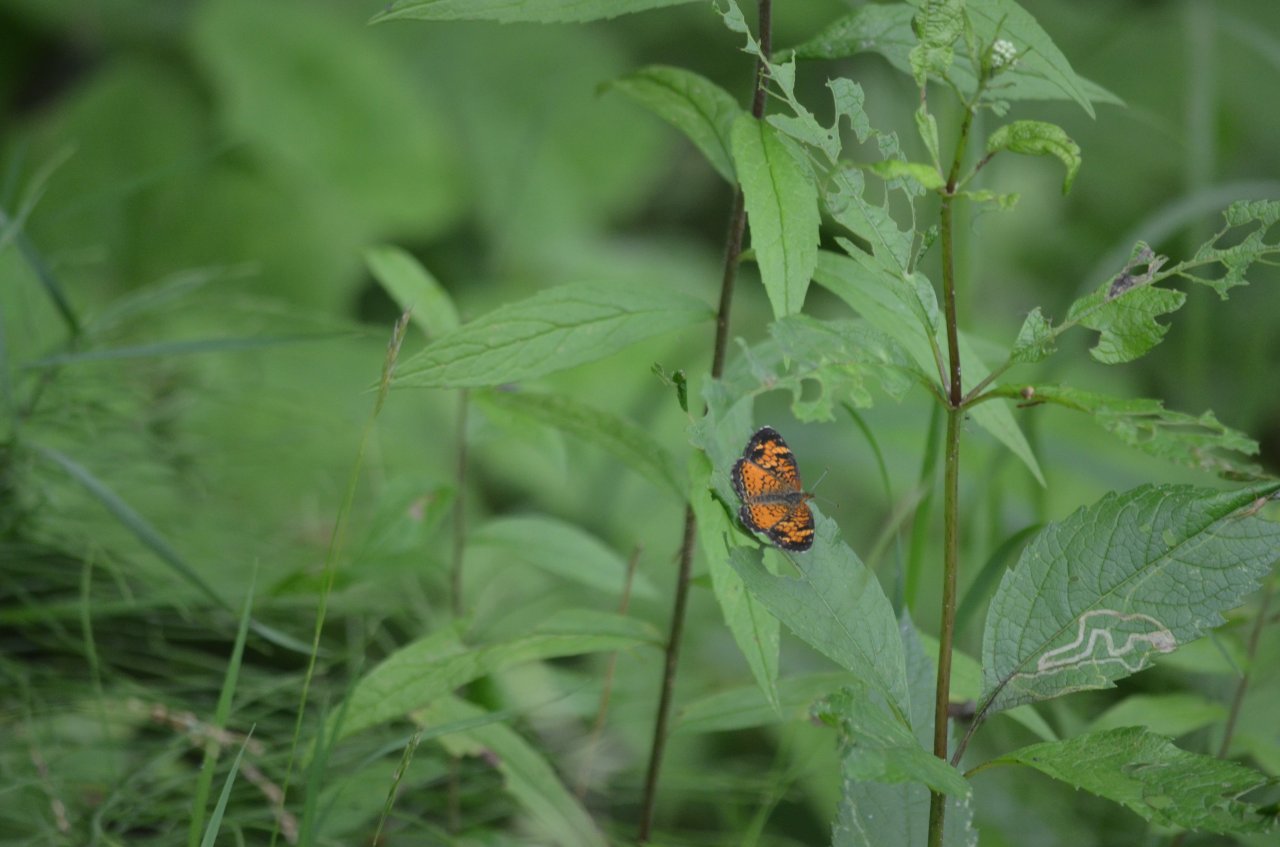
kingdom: Animalia
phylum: Arthropoda
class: Insecta
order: Lepidoptera
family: Lycaenidae
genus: Harkenclenus
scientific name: Harkenclenus titus
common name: Coral Hairstreak
